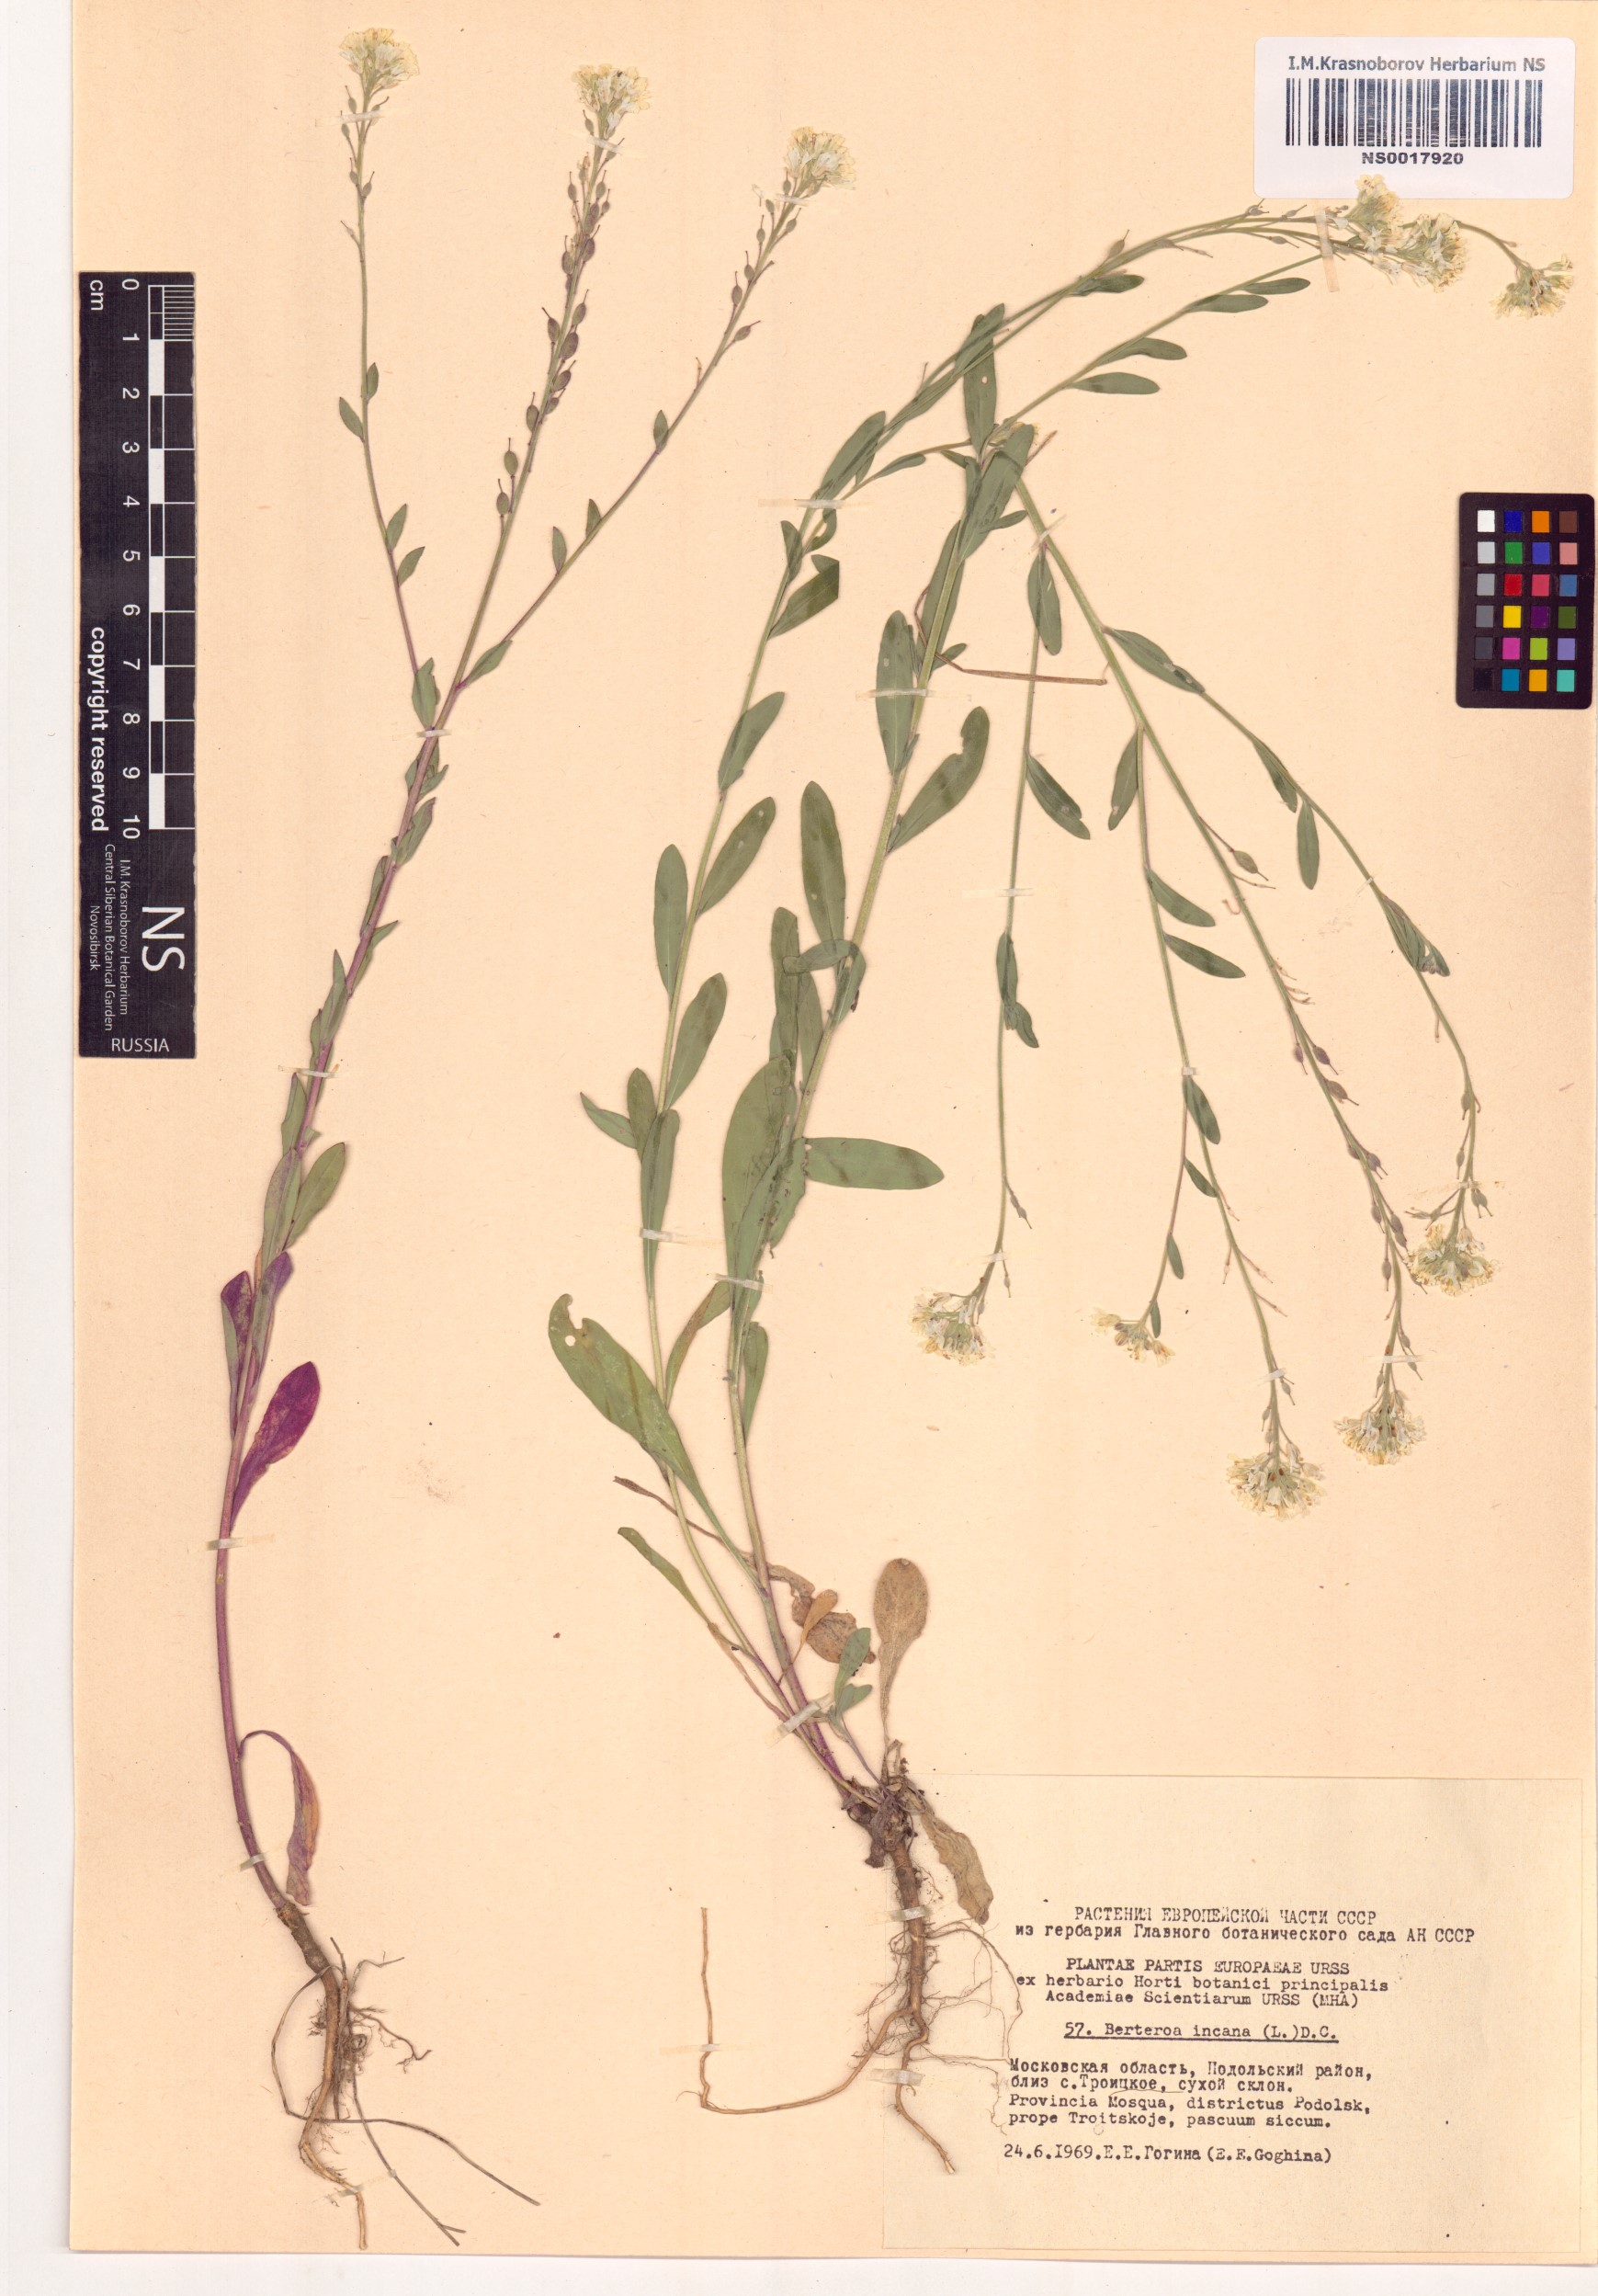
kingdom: Plantae
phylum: Tracheophyta
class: Magnoliopsida
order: Brassicales
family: Brassicaceae
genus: Berteroa
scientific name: Berteroa incana
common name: Hoary alison
